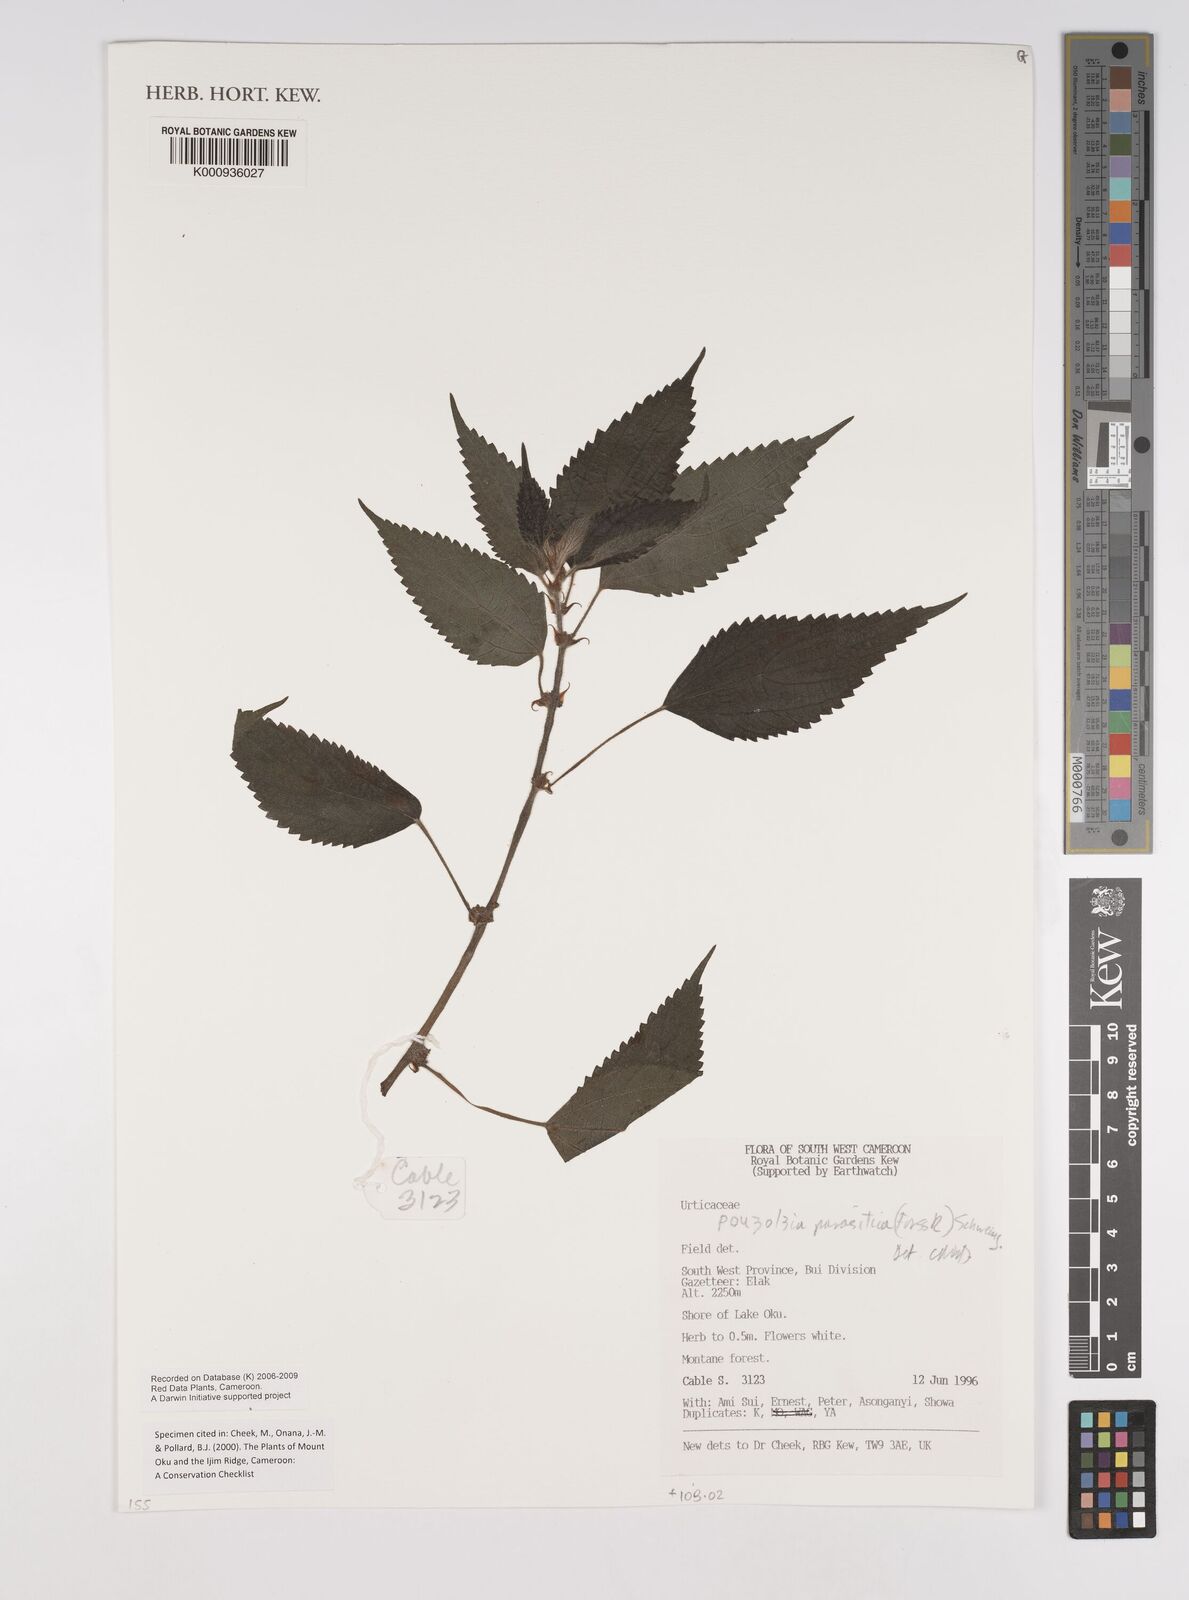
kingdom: Plantae
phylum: Tracheophyta
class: Magnoliopsida
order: Rosales
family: Urticaceae
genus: Pouzolzia
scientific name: Pouzolzia parasitica
